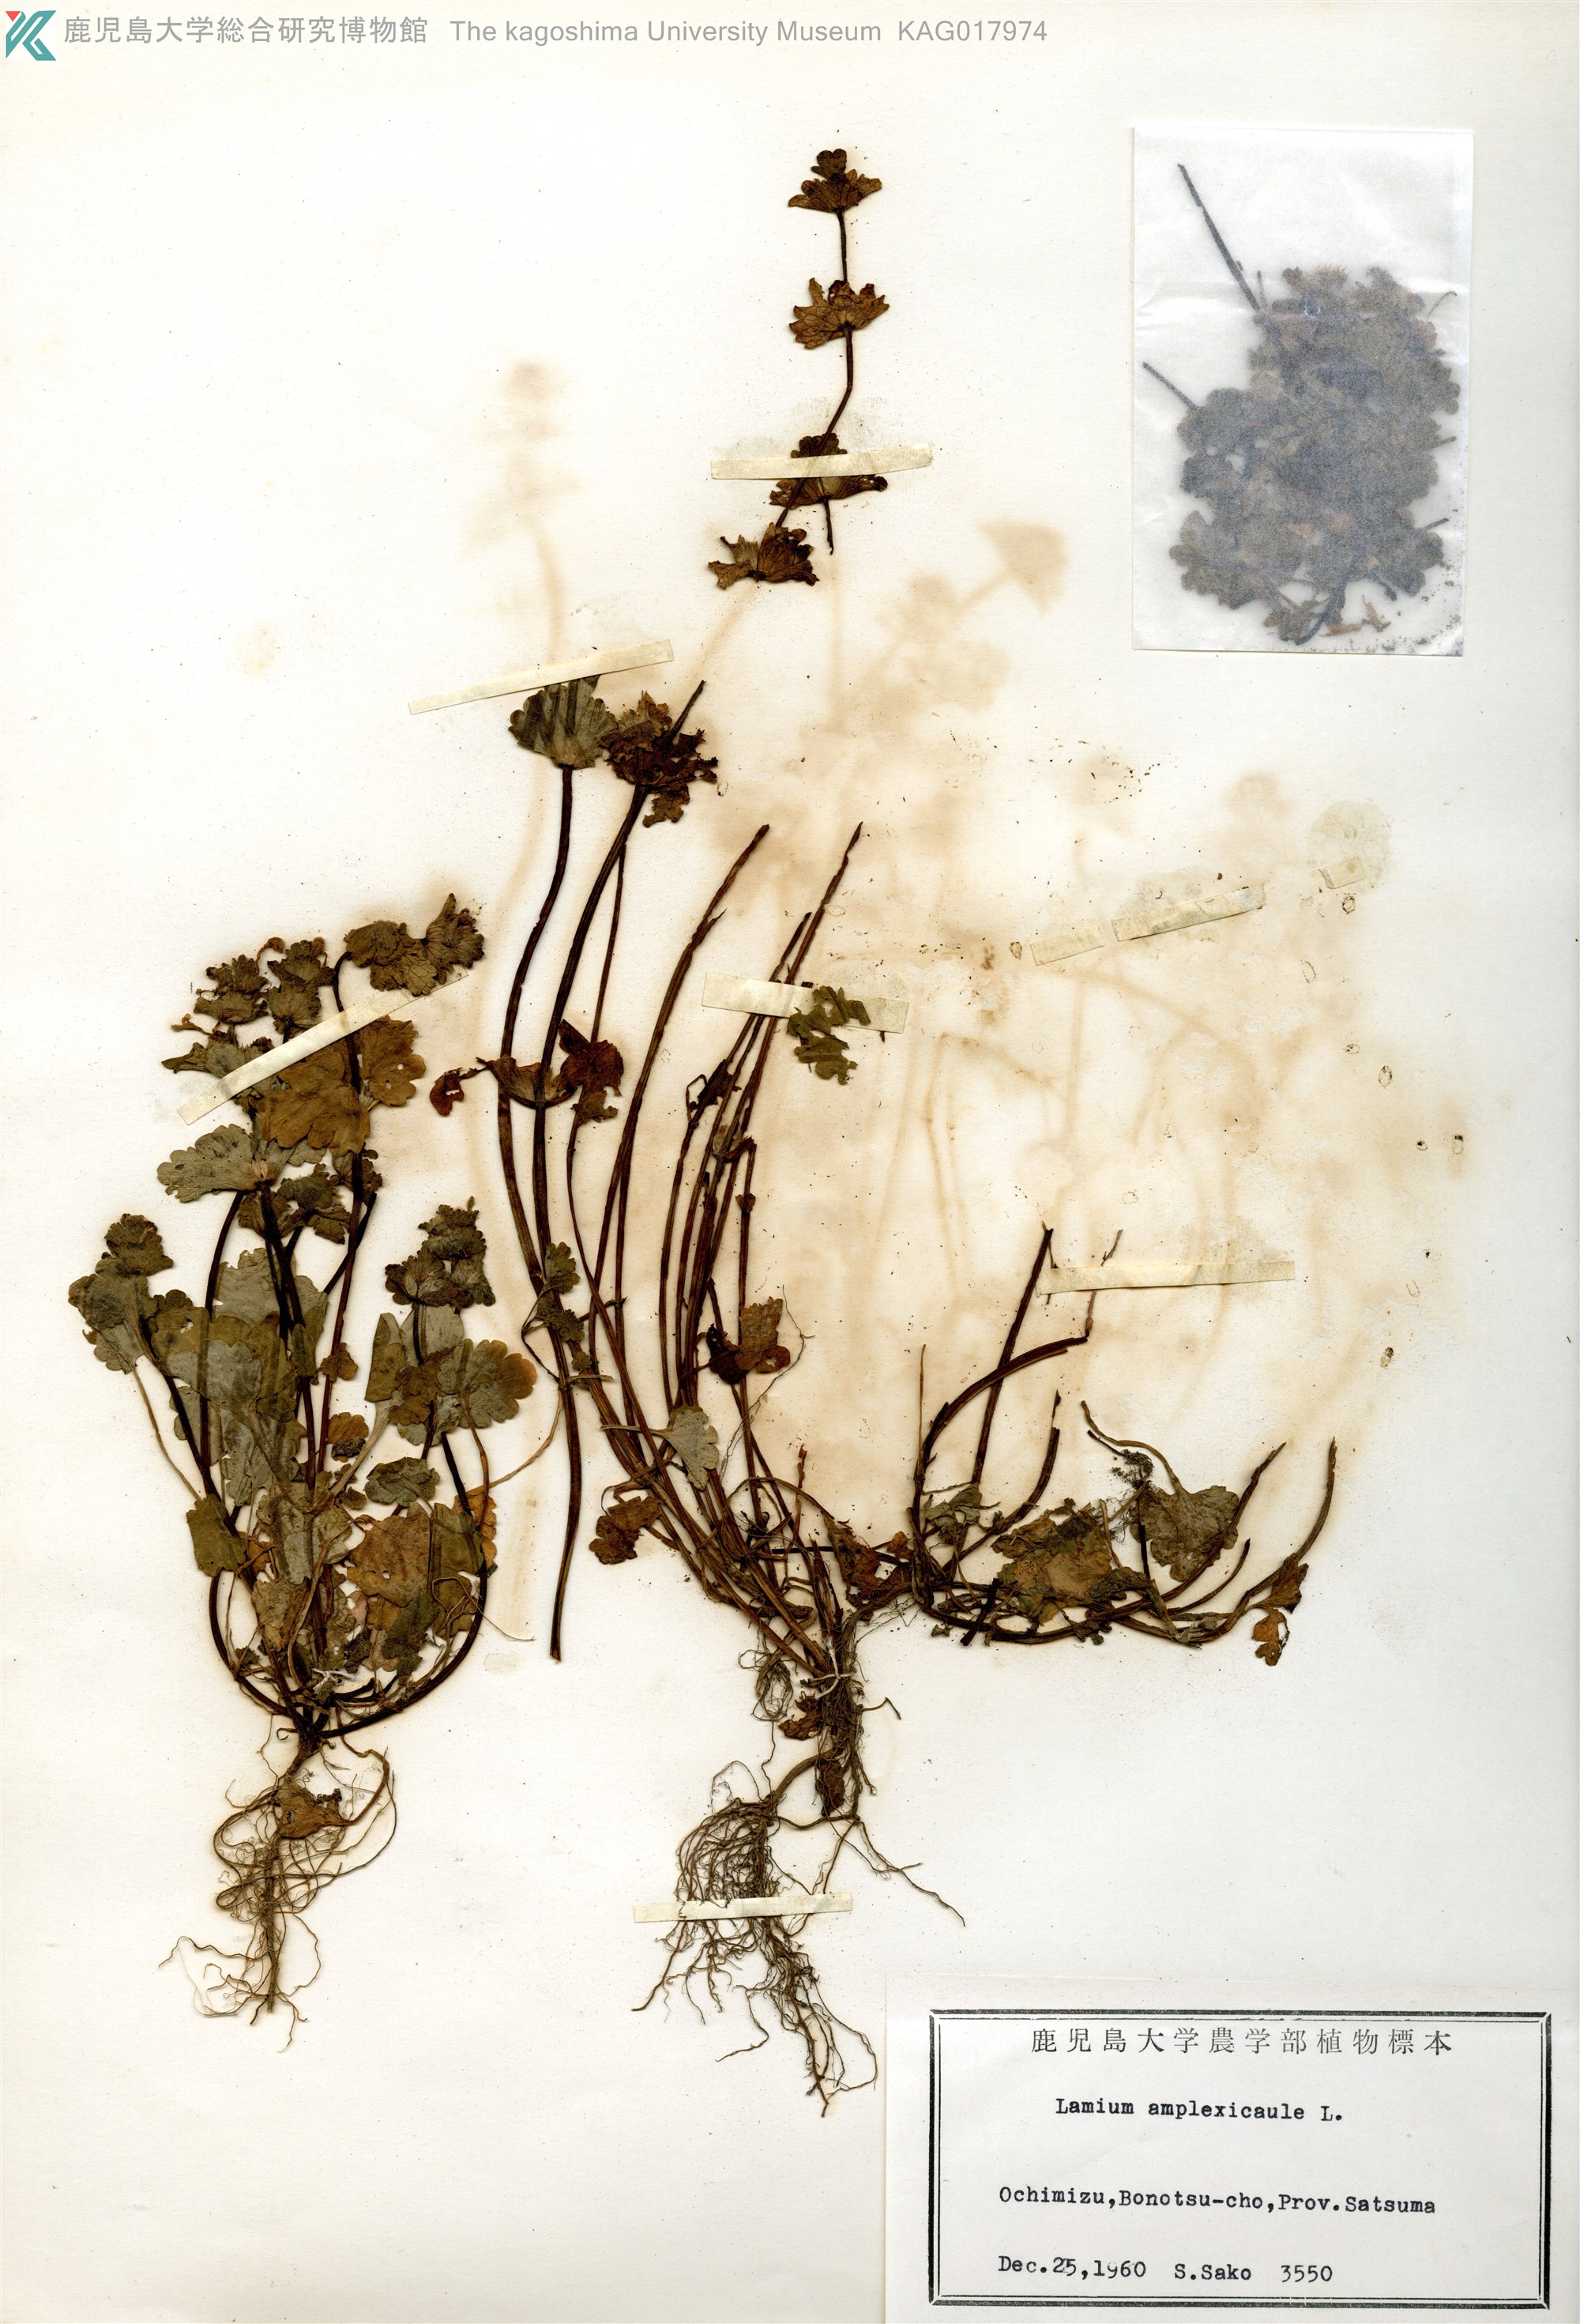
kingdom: Plantae
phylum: Tracheophyta
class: Magnoliopsida
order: Lamiales
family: Lamiaceae
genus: Lamium
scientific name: Lamium amplexicaule
